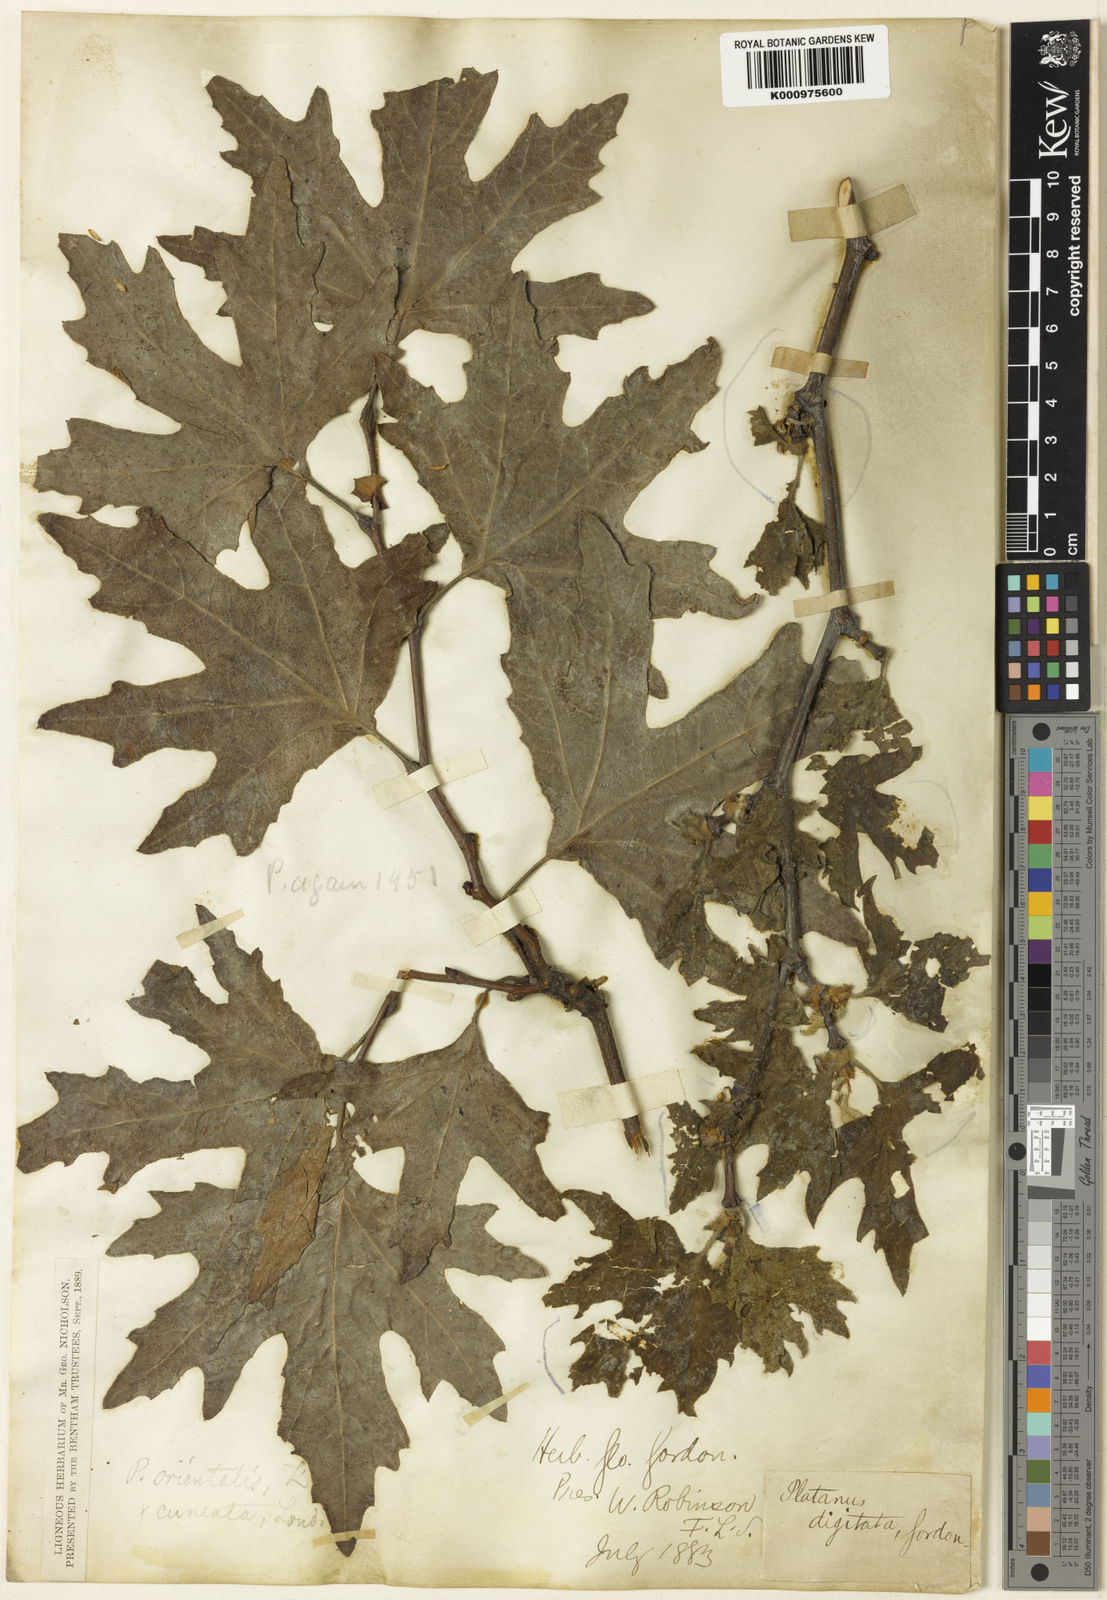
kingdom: Plantae
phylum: Tracheophyta
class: Magnoliopsida
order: Proteales
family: Platanaceae
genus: Platanus
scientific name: Platanus orientalis
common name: Oriental plane
